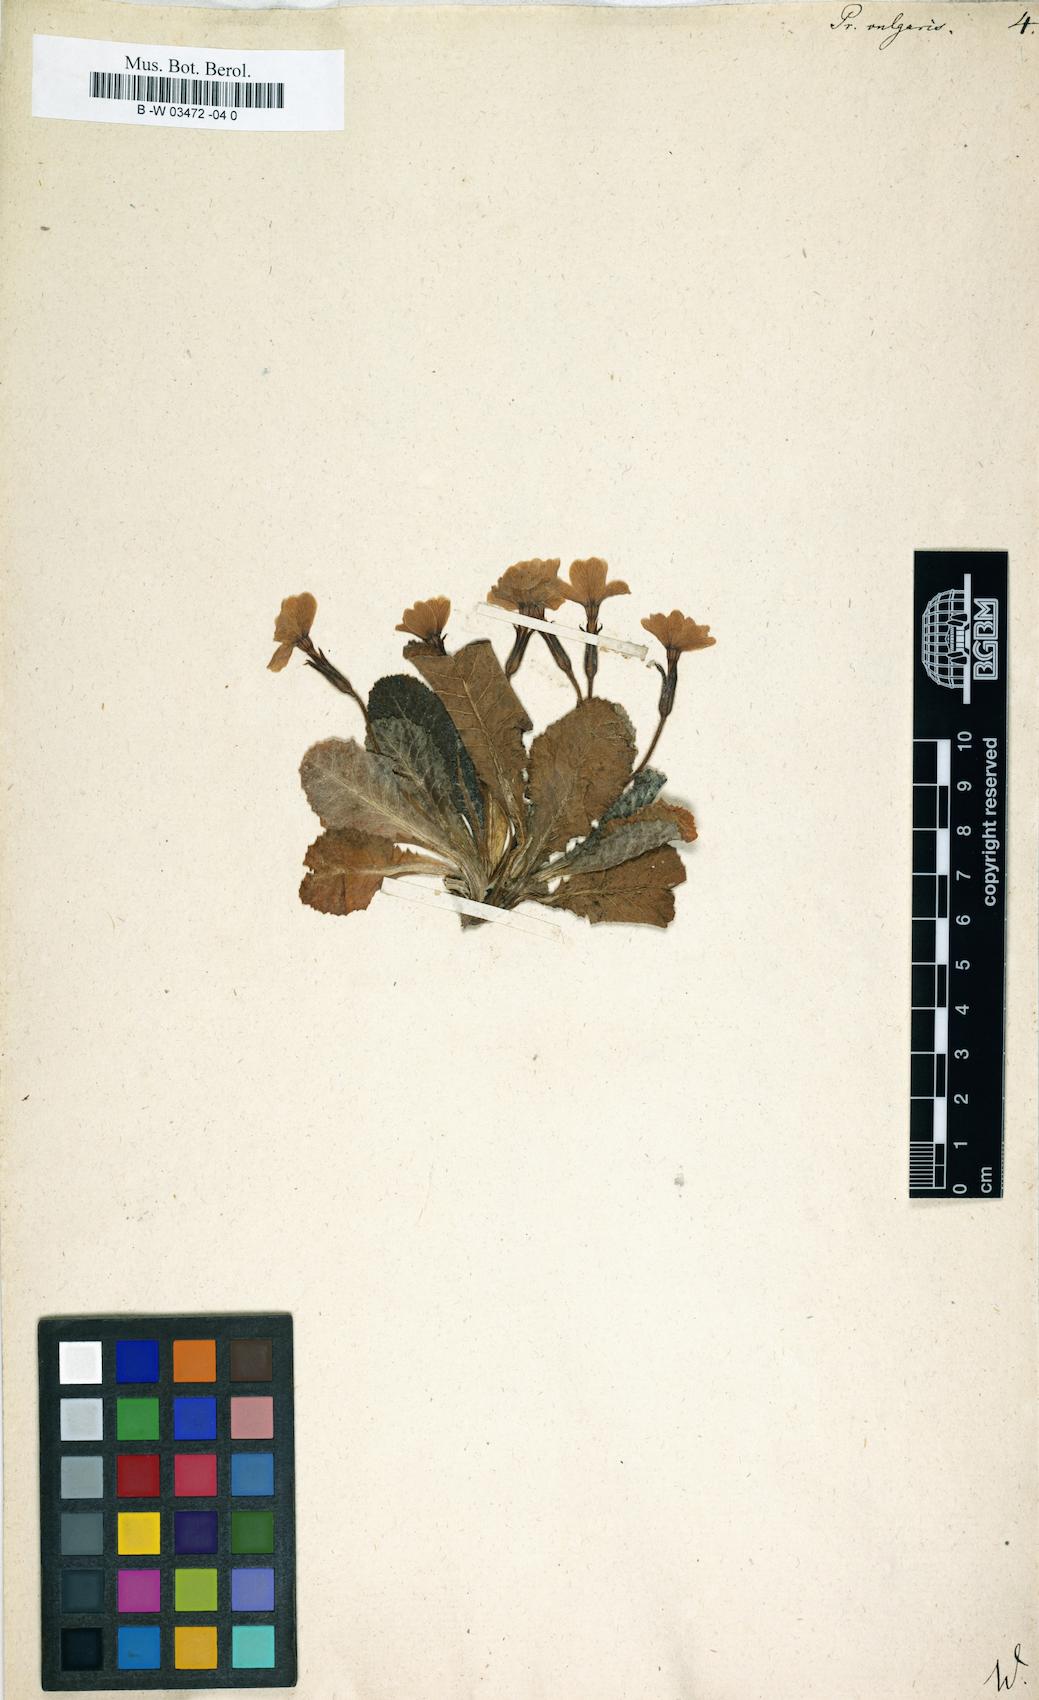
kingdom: Plantae
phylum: Tracheophyta
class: Magnoliopsida
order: Ericales
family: Primulaceae
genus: Primula
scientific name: Primula vulgaris
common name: Primrose
